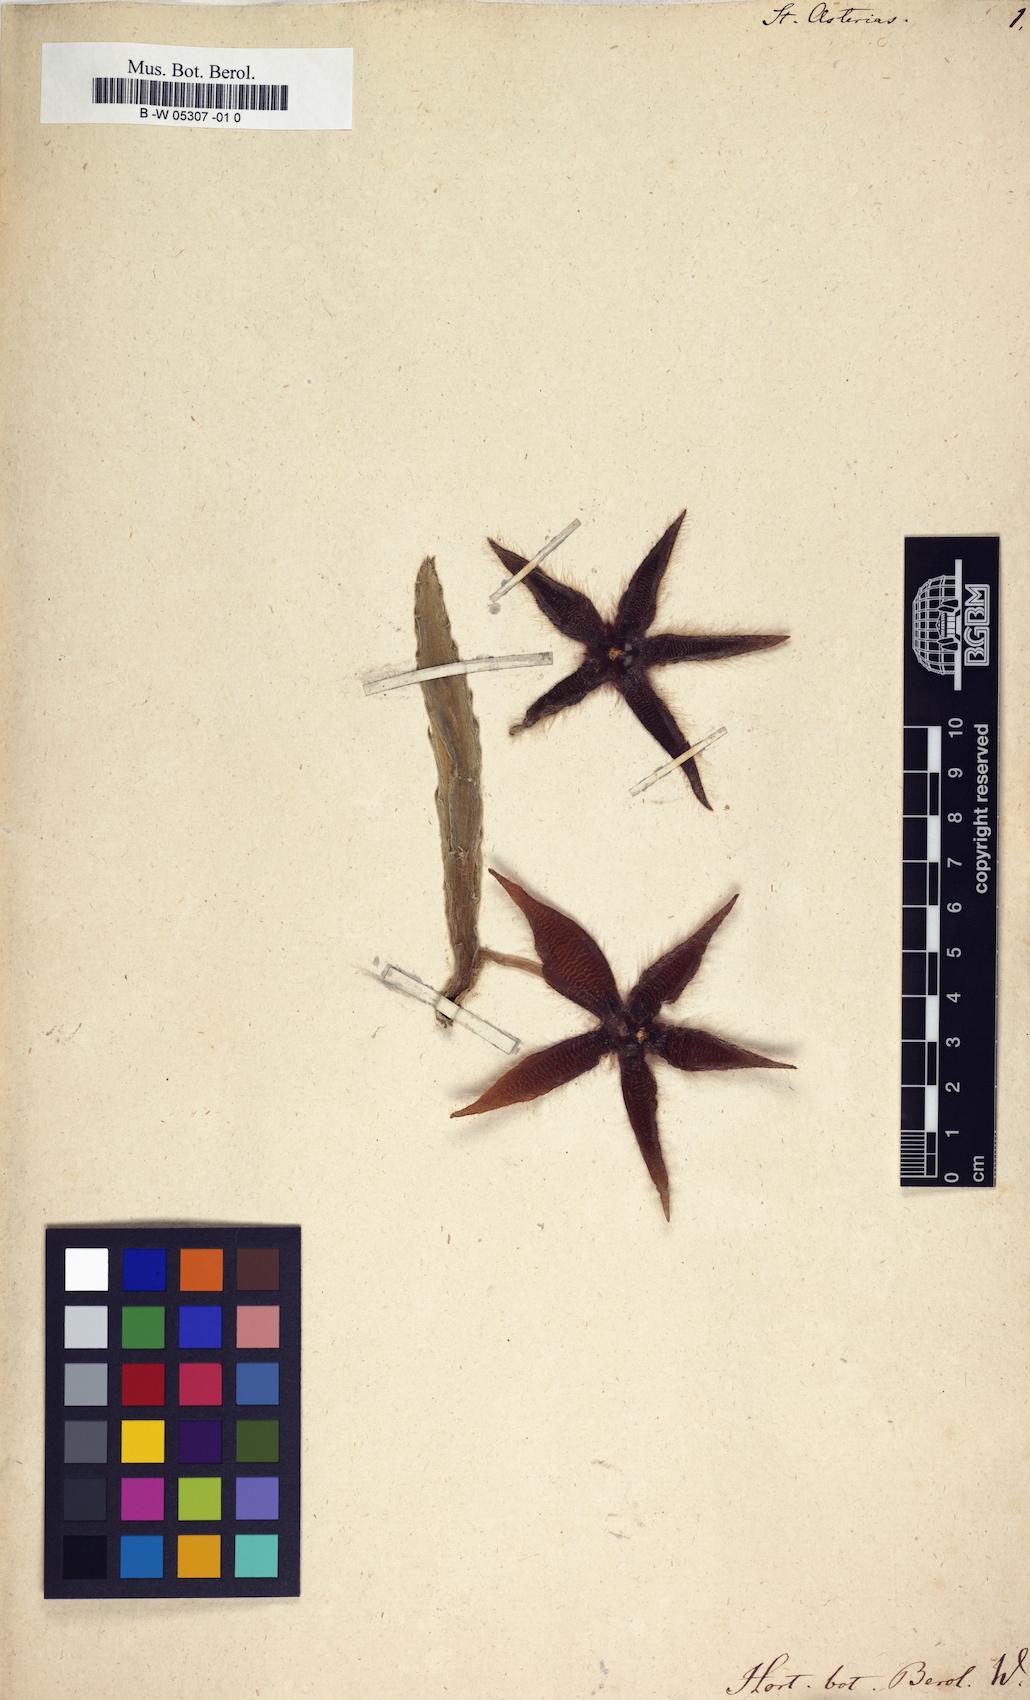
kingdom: Plantae
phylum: Tracheophyta
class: Magnoliopsida
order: Gentianales
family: Apocynaceae
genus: Ceropegia
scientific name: Ceropegia pulvinata
